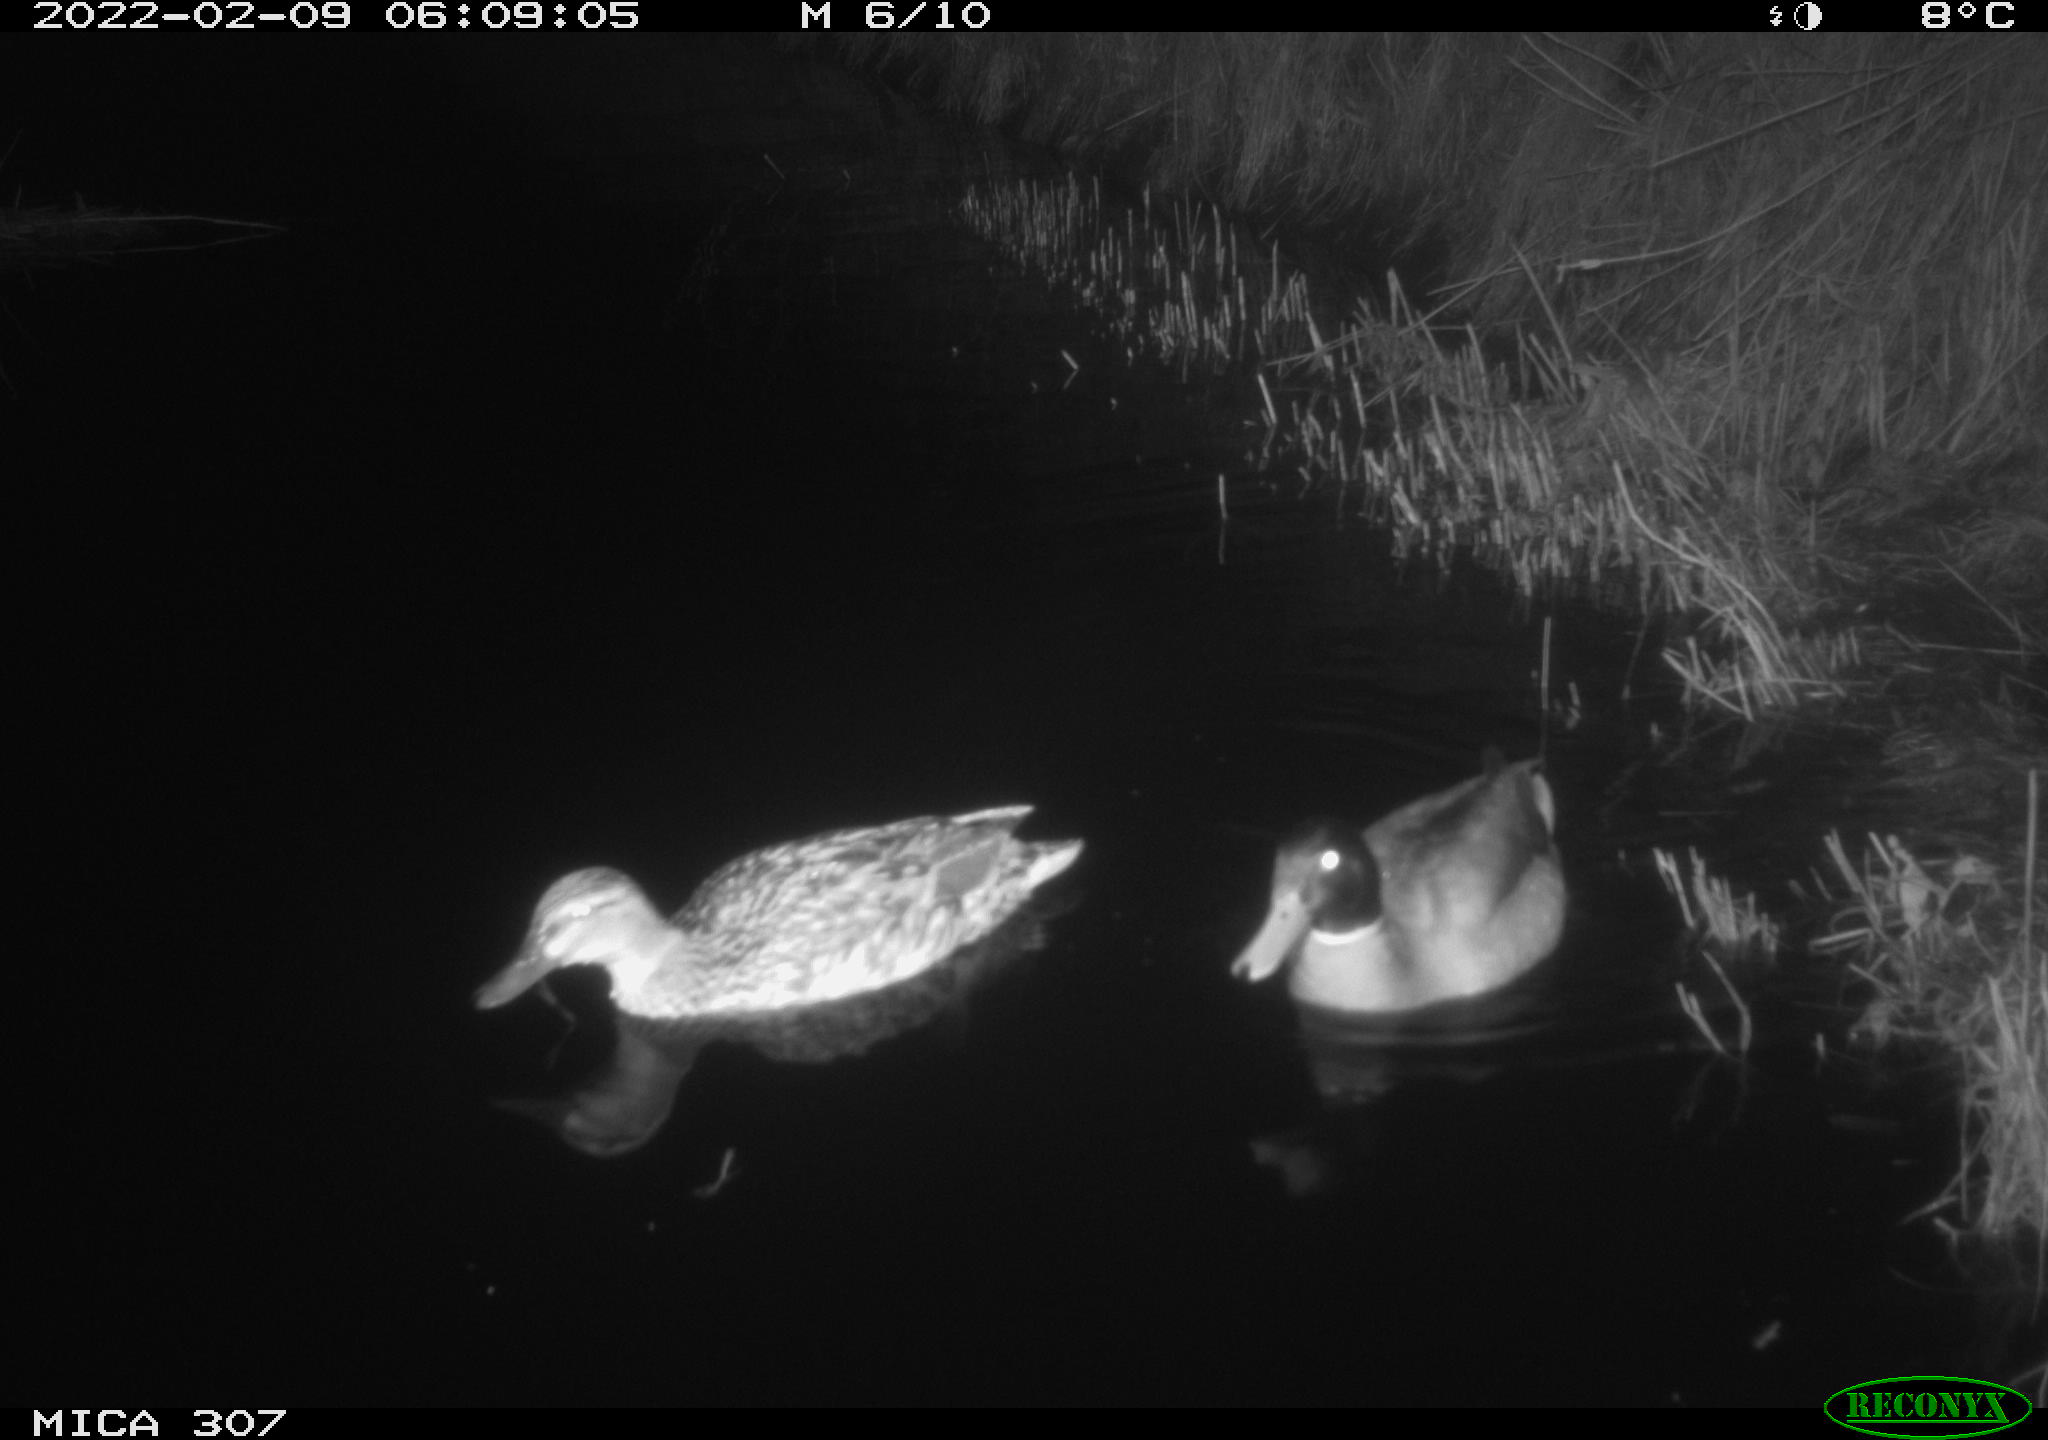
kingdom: Animalia
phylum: Chordata
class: Aves
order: Anseriformes
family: Anatidae
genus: Anas
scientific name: Anas platyrhynchos
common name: Mallard
